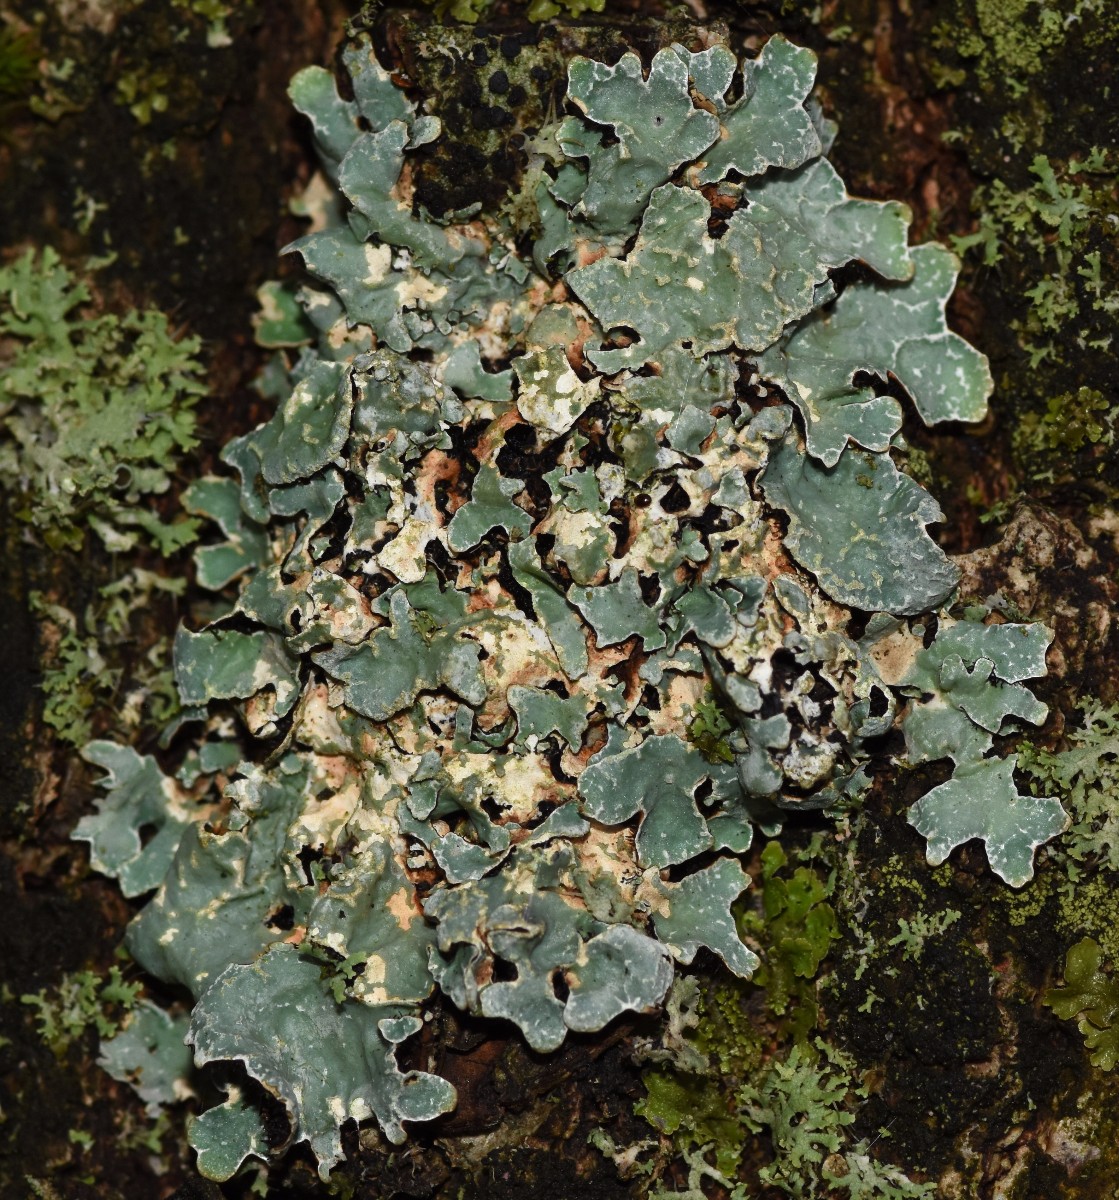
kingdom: Fungi
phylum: Ascomycota
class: Lecanoromycetes
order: Lecanorales
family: Parmeliaceae
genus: Parmelia
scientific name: Parmelia sulcata
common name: rynket skållav
